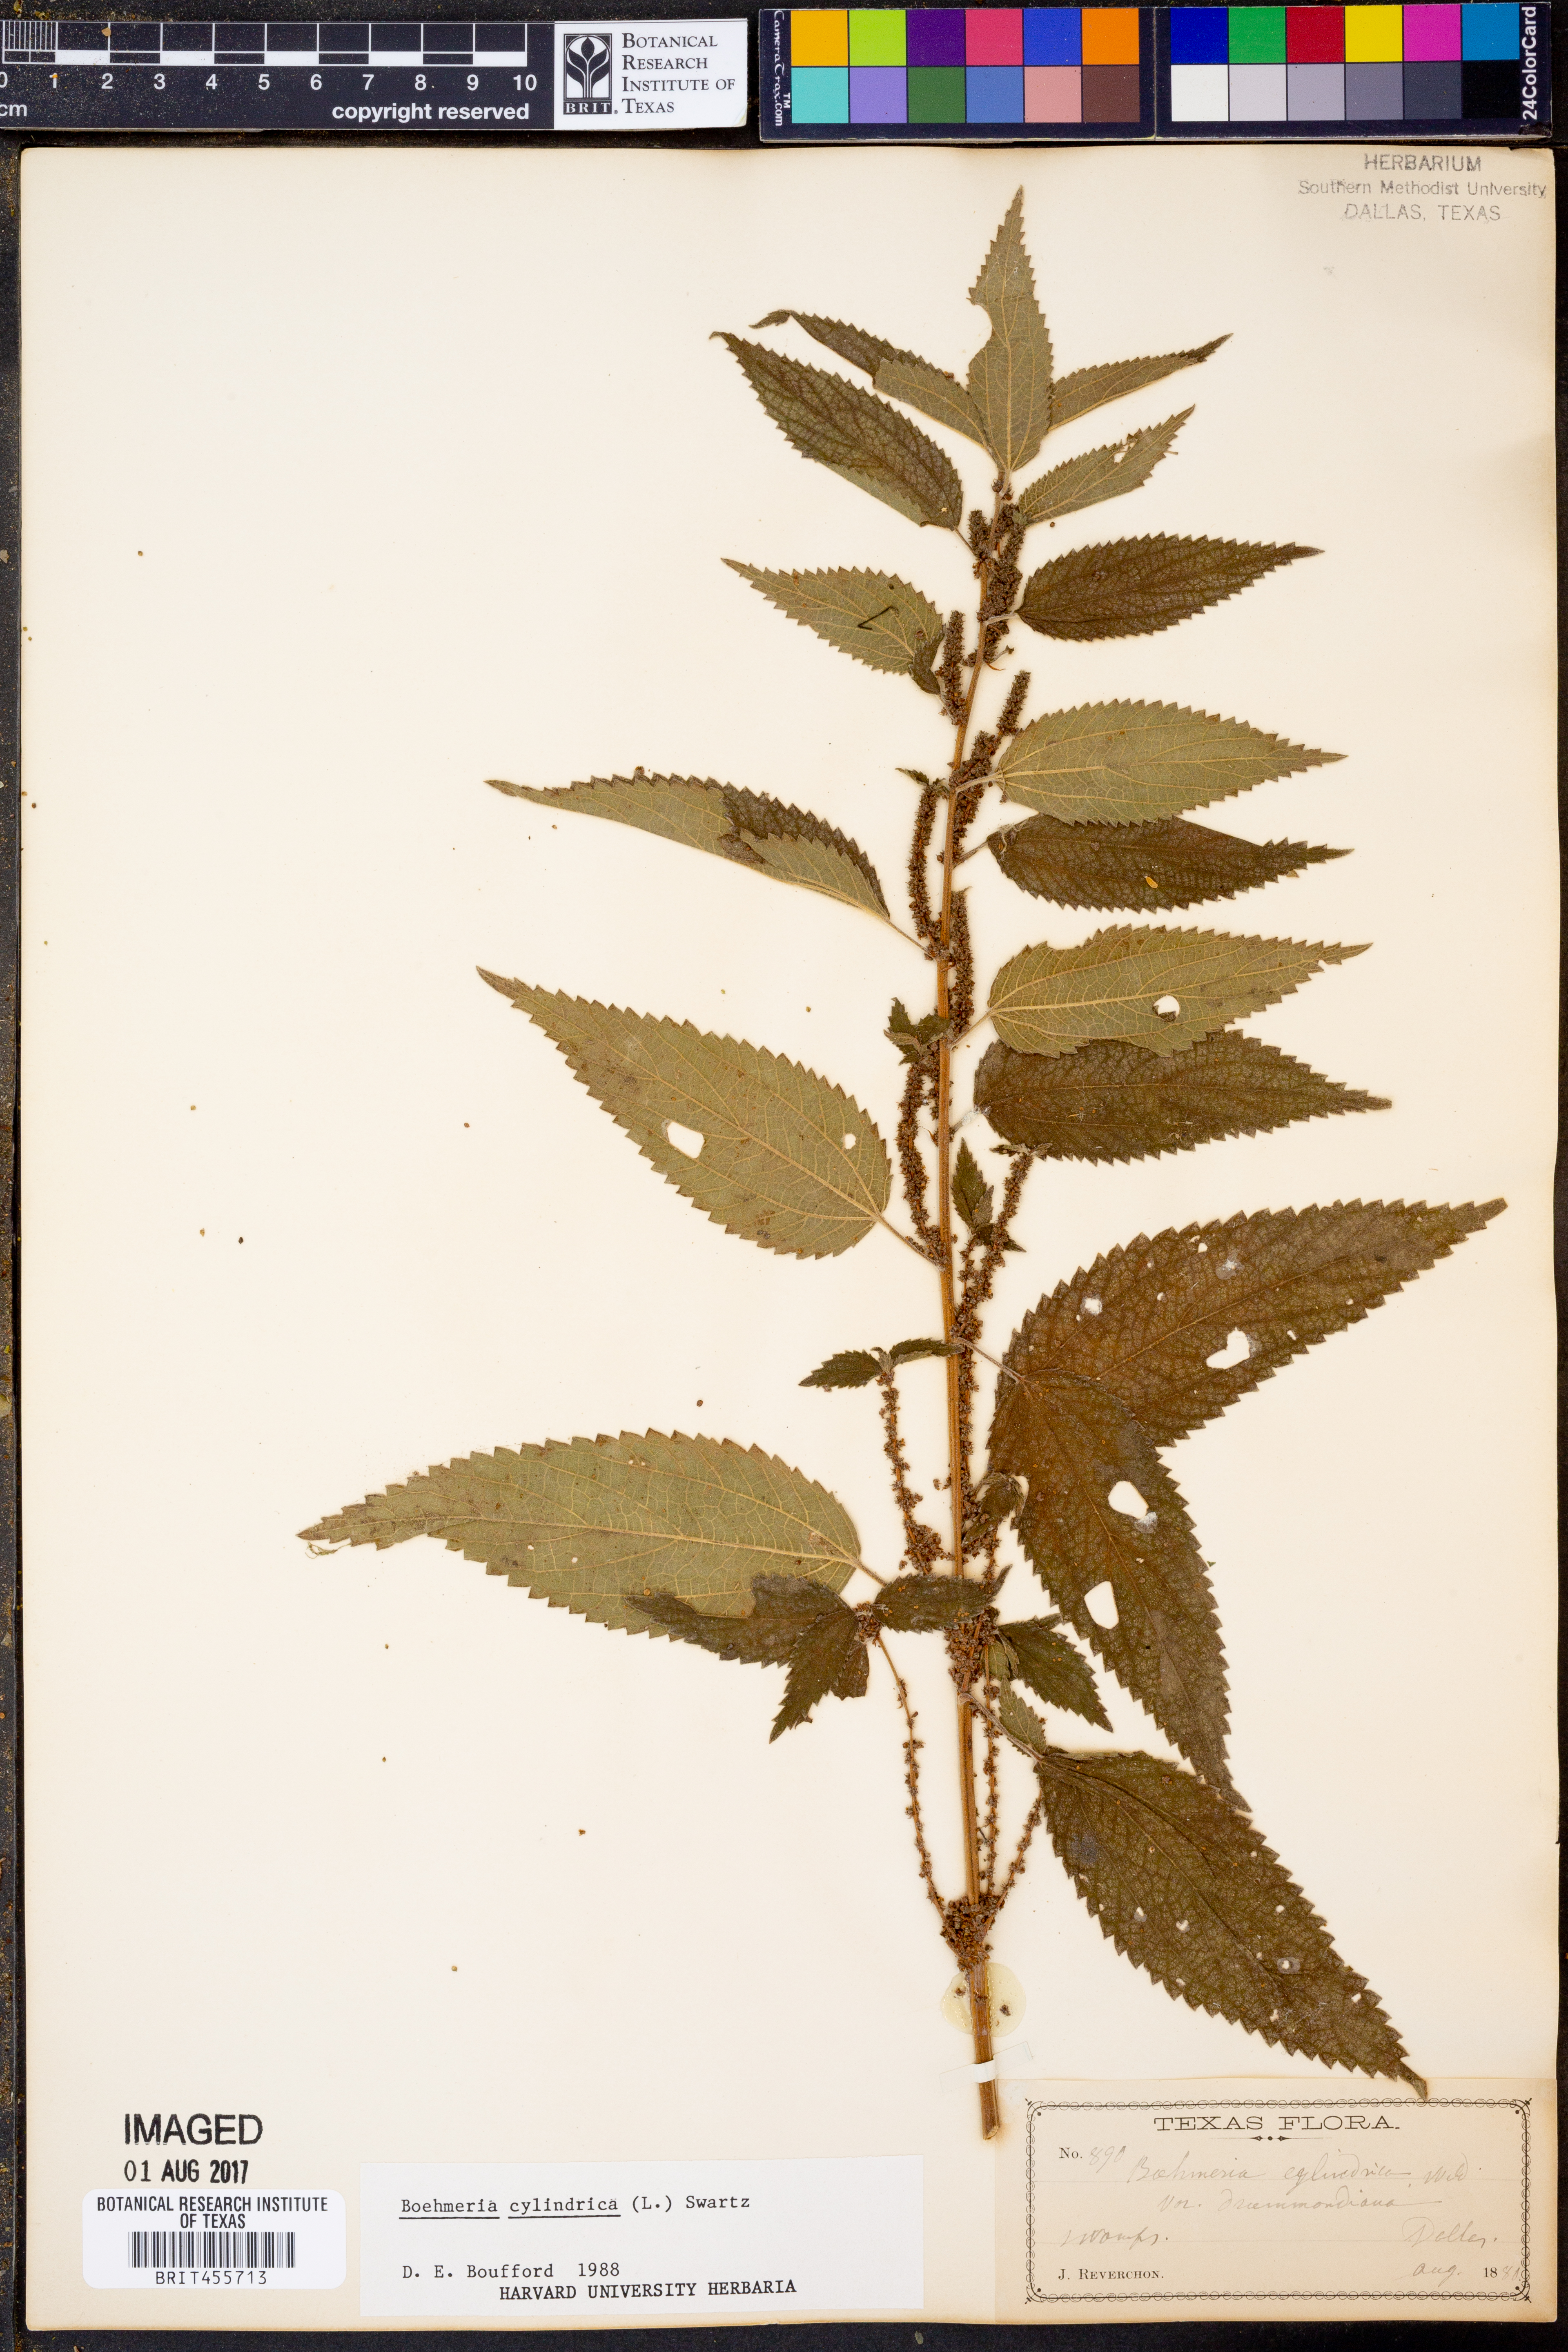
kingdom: Plantae
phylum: Tracheophyta
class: Magnoliopsida
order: Rosales
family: Urticaceae
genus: Boehmeria
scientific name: Boehmeria cylindrica
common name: Bog-hemp
